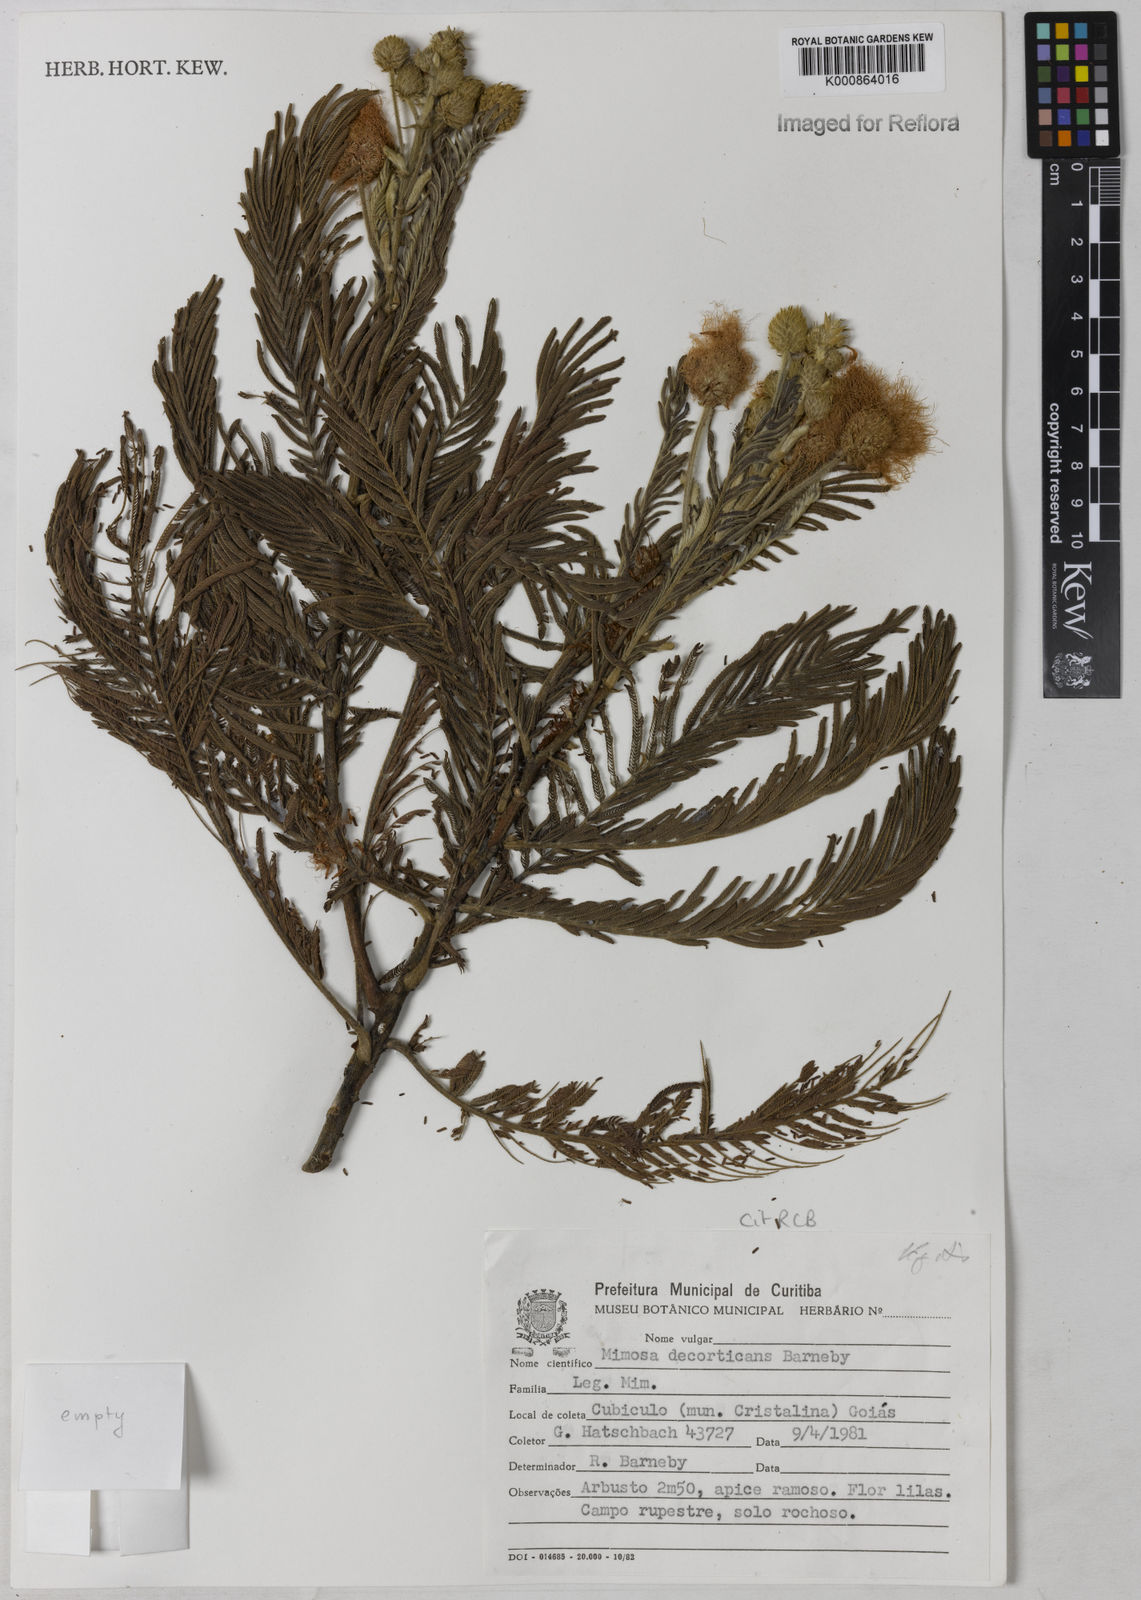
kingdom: Plantae
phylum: Tracheophyta
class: Magnoliopsida
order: Fabales
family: Fabaceae
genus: Mimosa
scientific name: Mimosa decorticans
